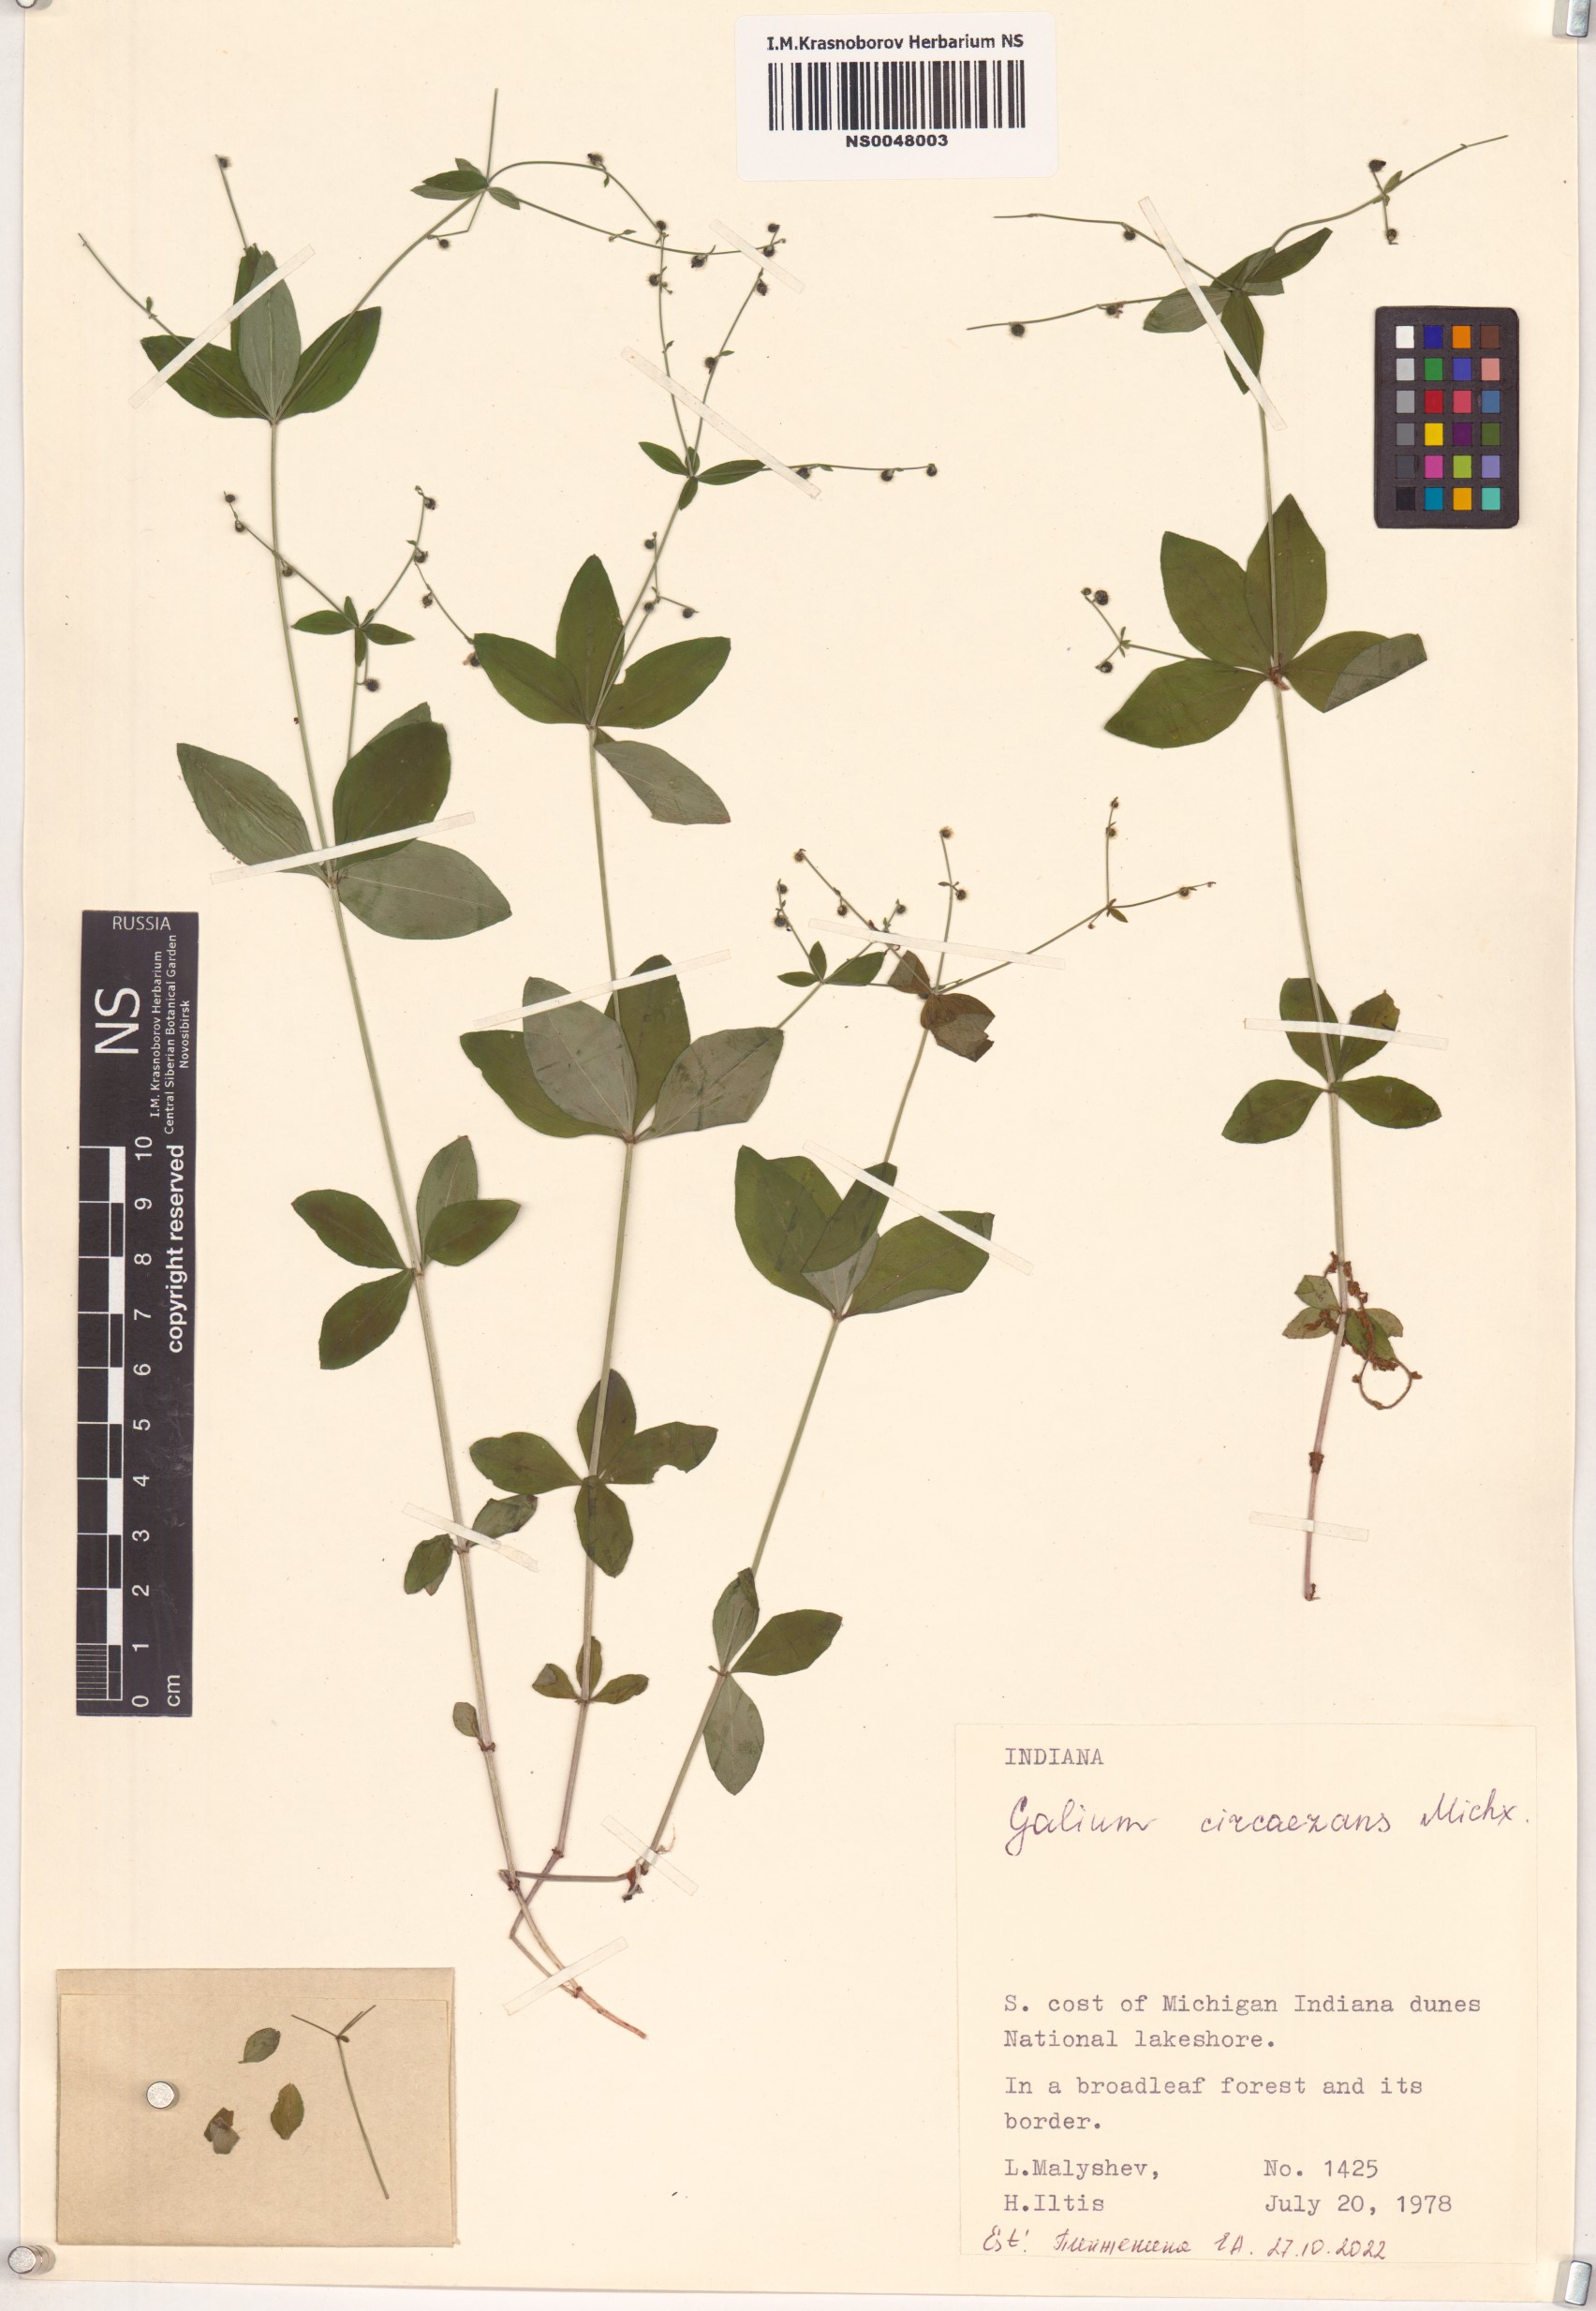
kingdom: Plantae
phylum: Tracheophyta
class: Magnoliopsida
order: Gentianales
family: Rubiaceae
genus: Galium
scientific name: Galium circaezans
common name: Forest bedstraw
